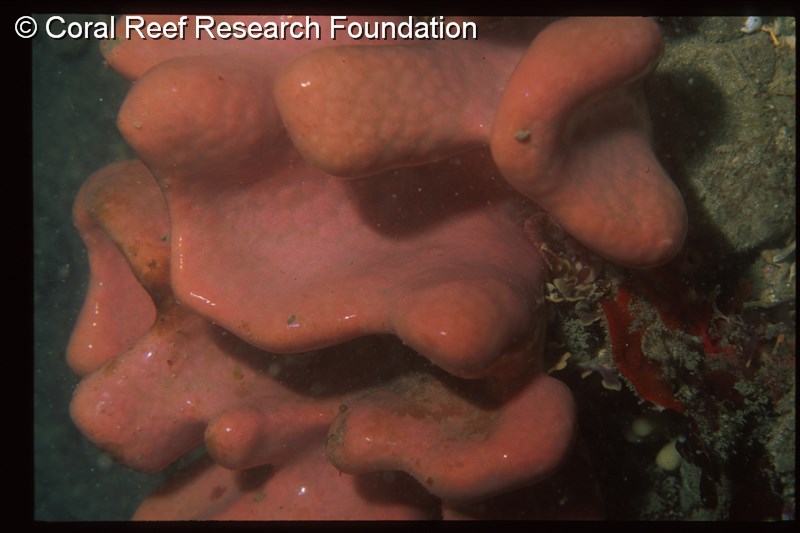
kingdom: Animalia
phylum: Chordata
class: Ascidiacea
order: Aplousobranchia
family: Polyclinidae
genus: Aplidium
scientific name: Aplidium
